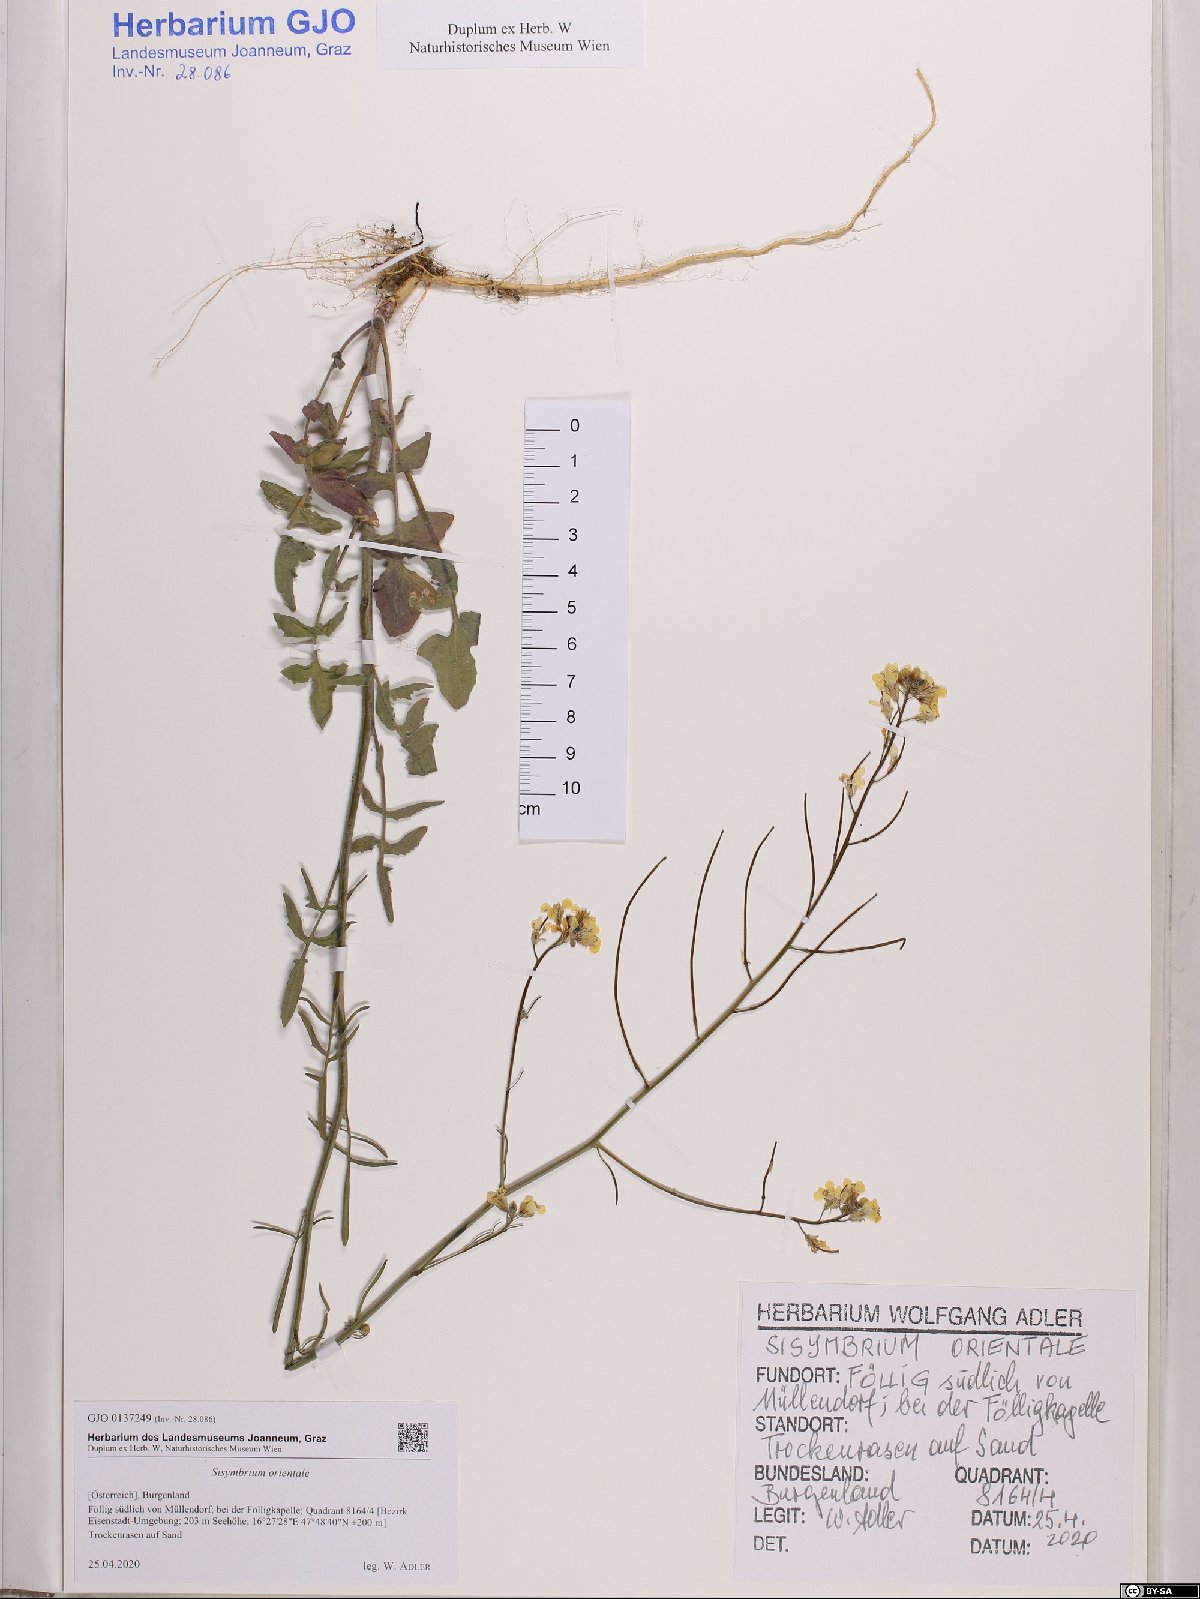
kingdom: Plantae
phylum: Tracheophyta
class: Magnoliopsida
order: Brassicales
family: Brassicaceae
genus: Sisymbrium
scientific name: Sisymbrium orientale
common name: Eastern rocket
